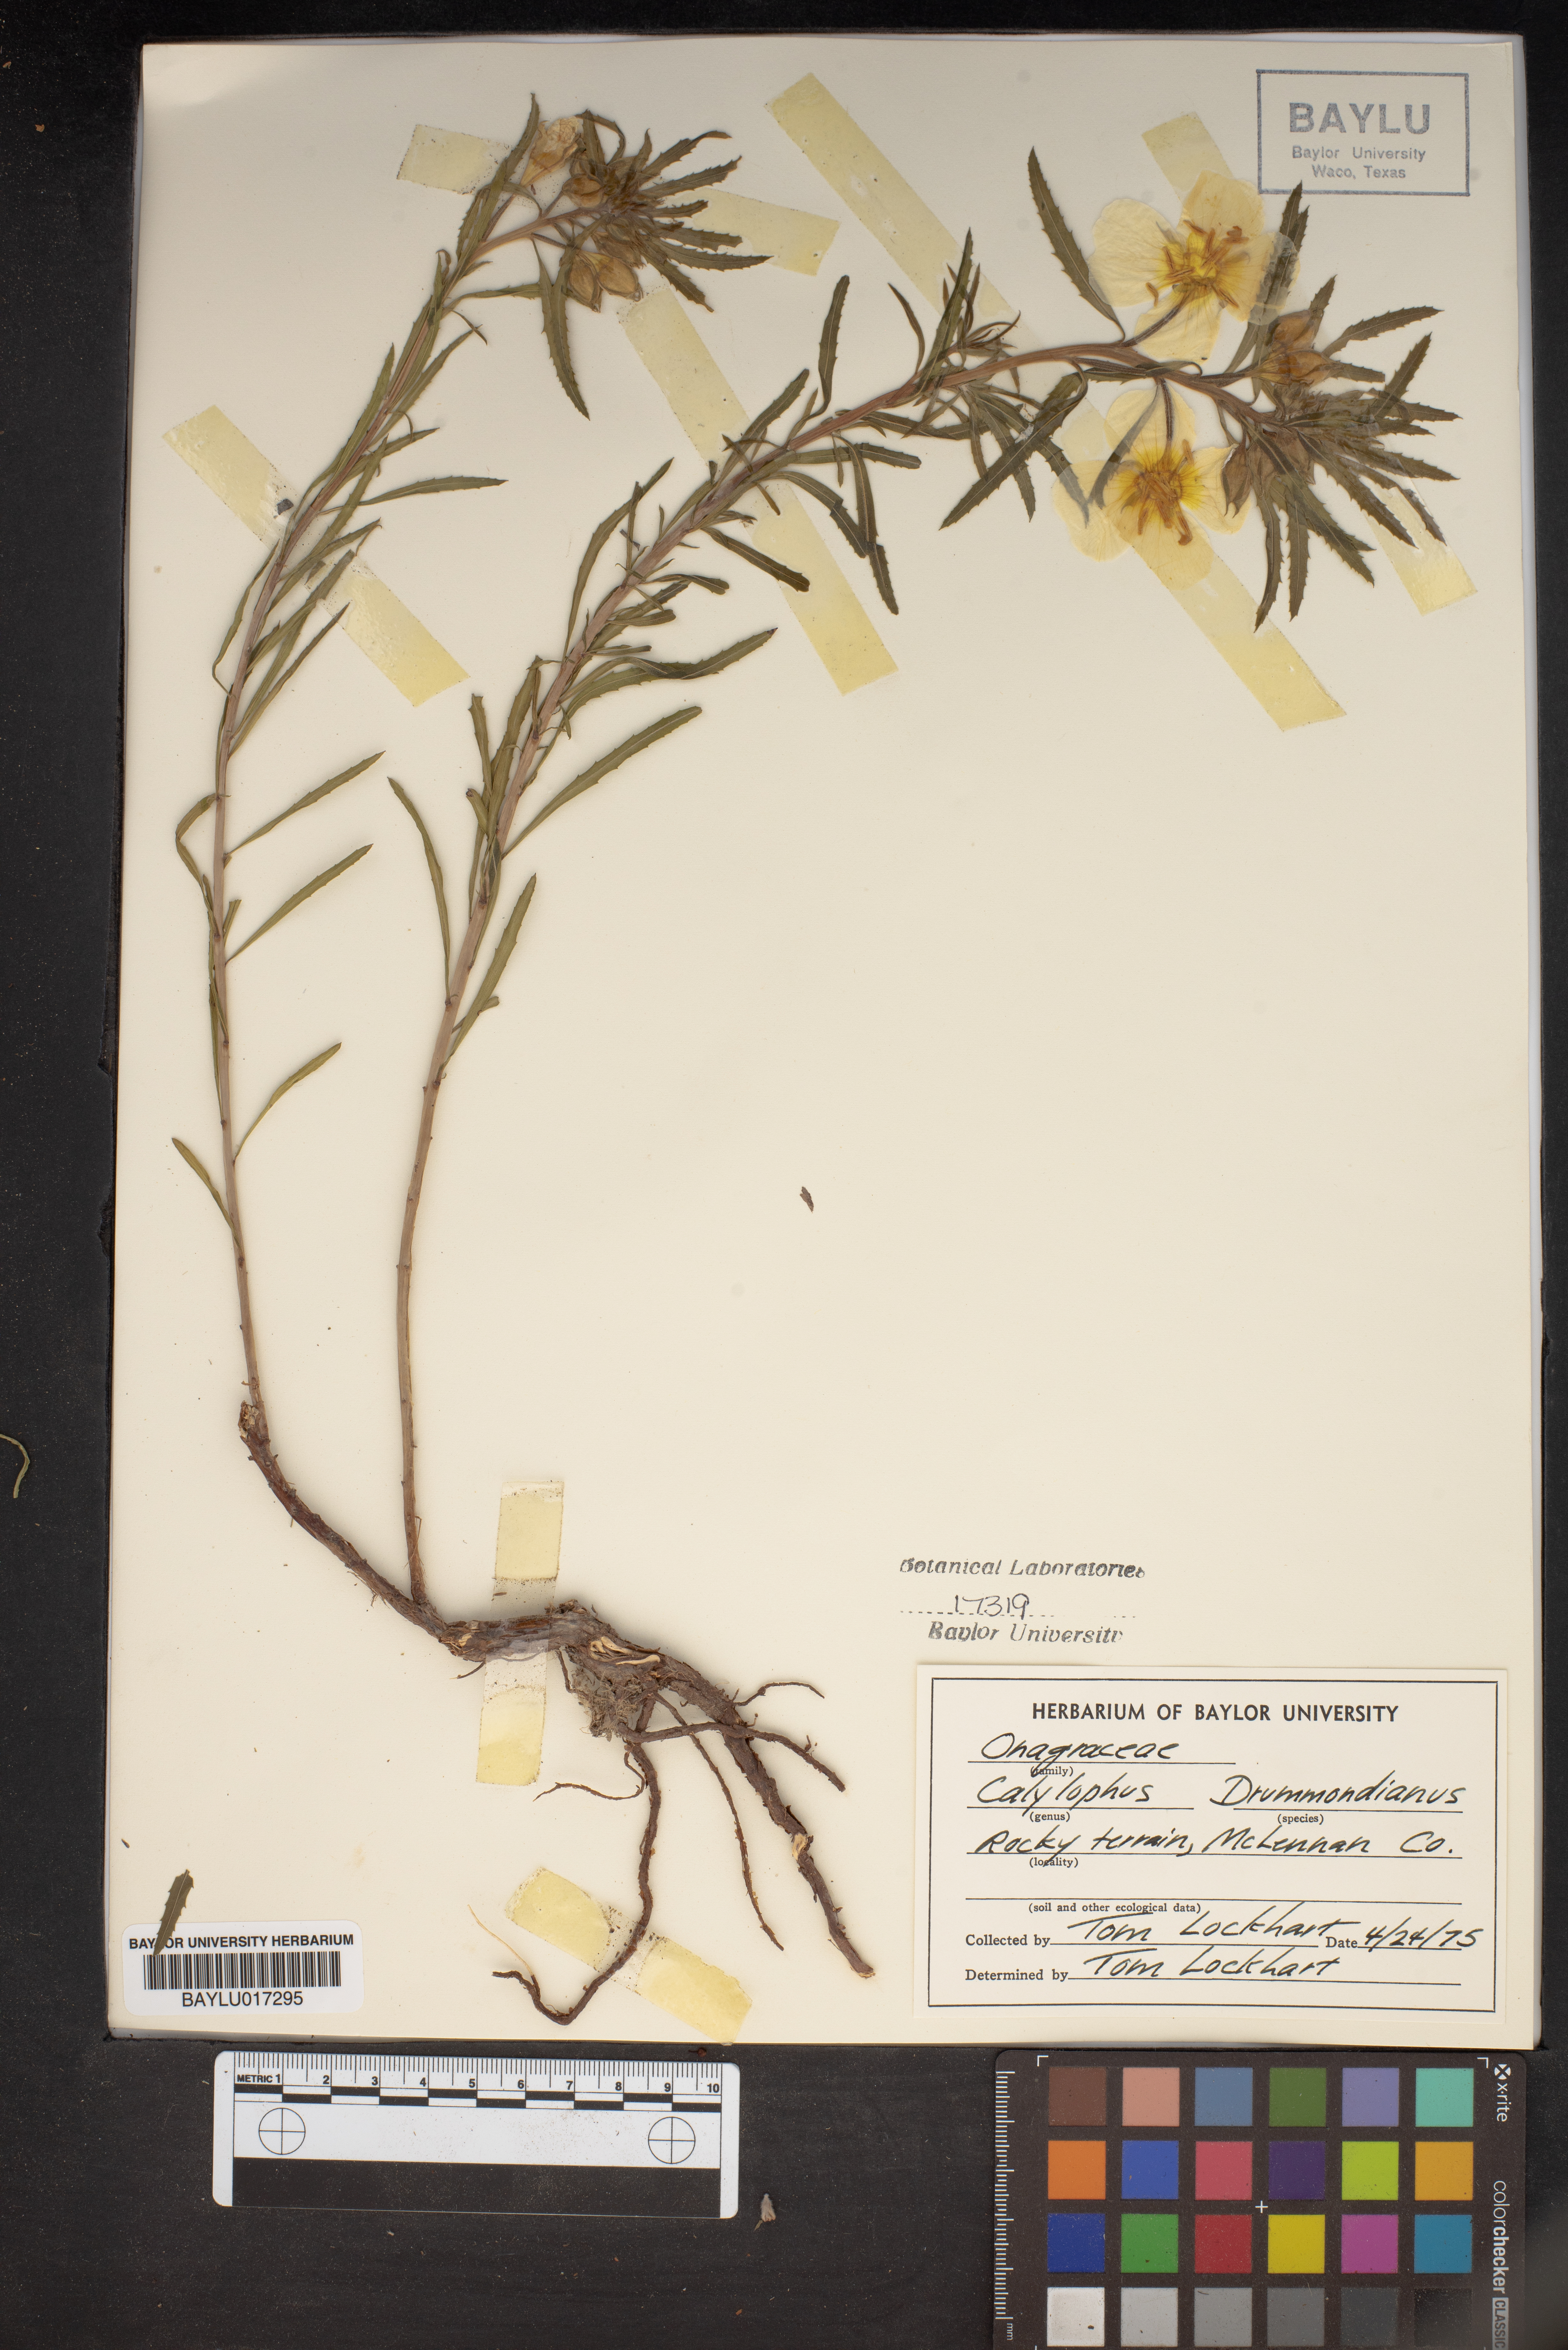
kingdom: Plantae
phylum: Tracheophyta
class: Magnoliopsida
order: Myrtales
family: Onagraceae
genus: Oenothera
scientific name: Oenothera serrulata
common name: Half-shrub calylophus
